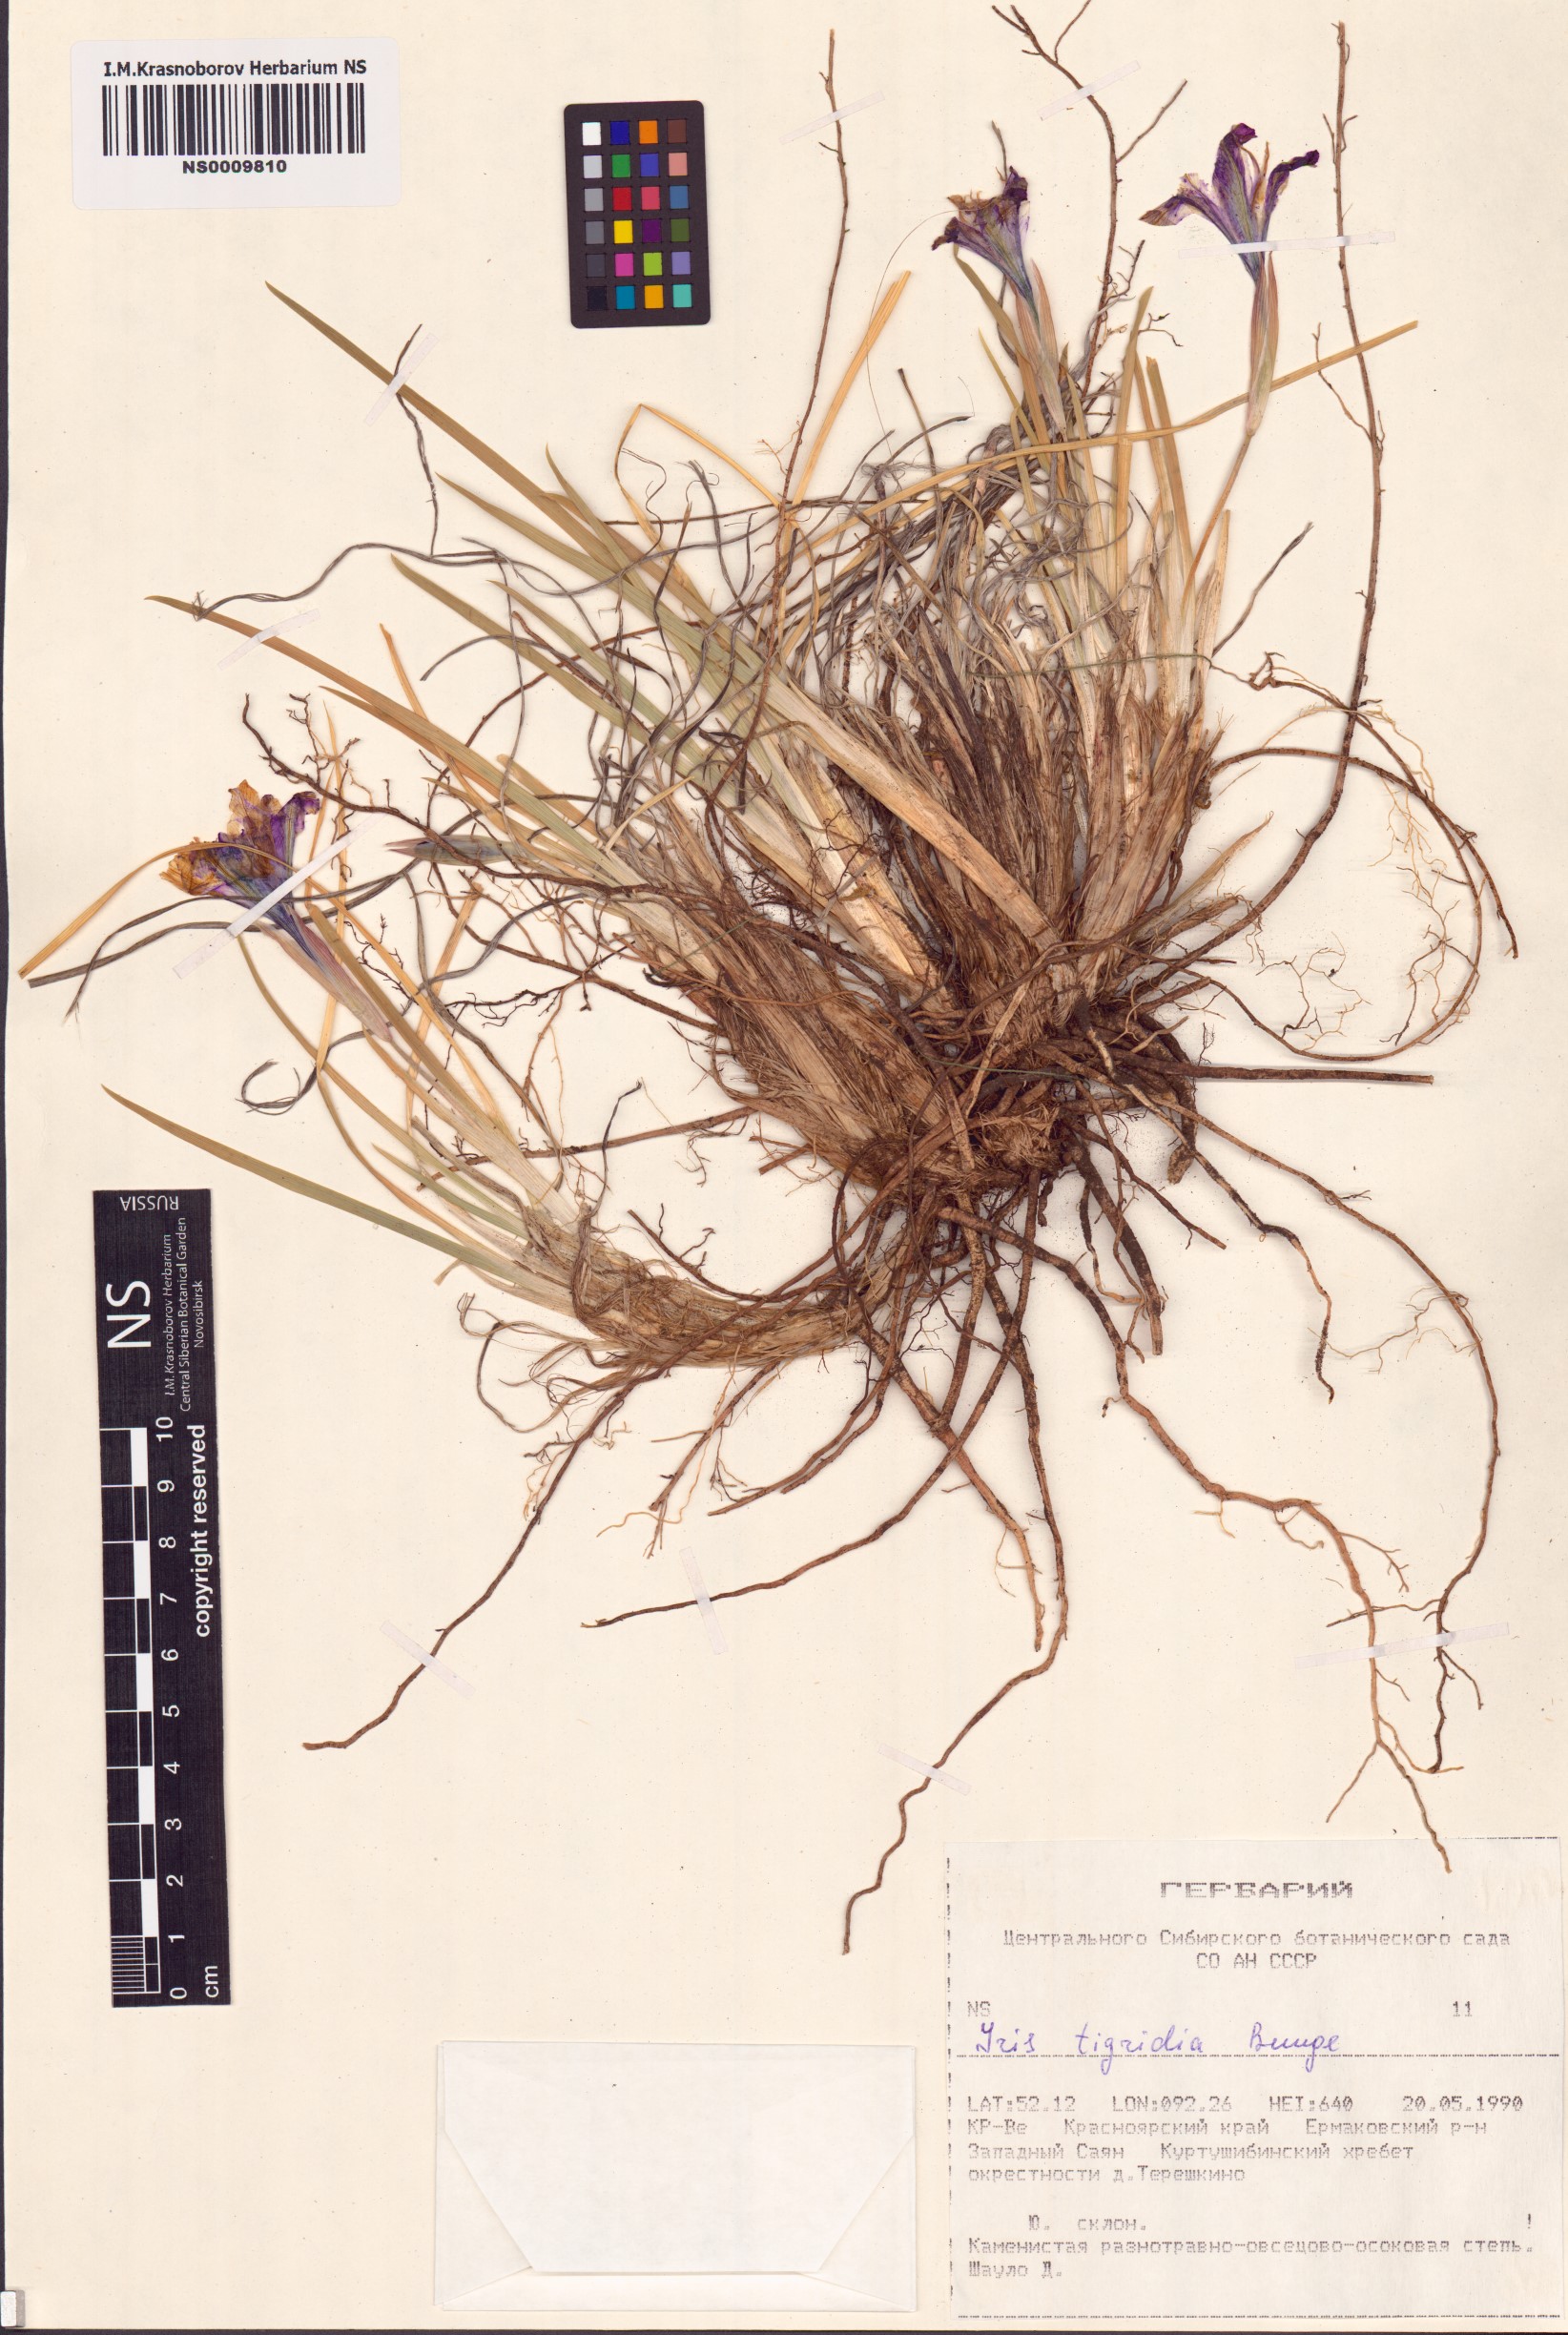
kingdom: Plantae
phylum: Tracheophyta
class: Liliopsida
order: Asparagales
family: Iridaceae
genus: Iris
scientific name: Iris tigridia
